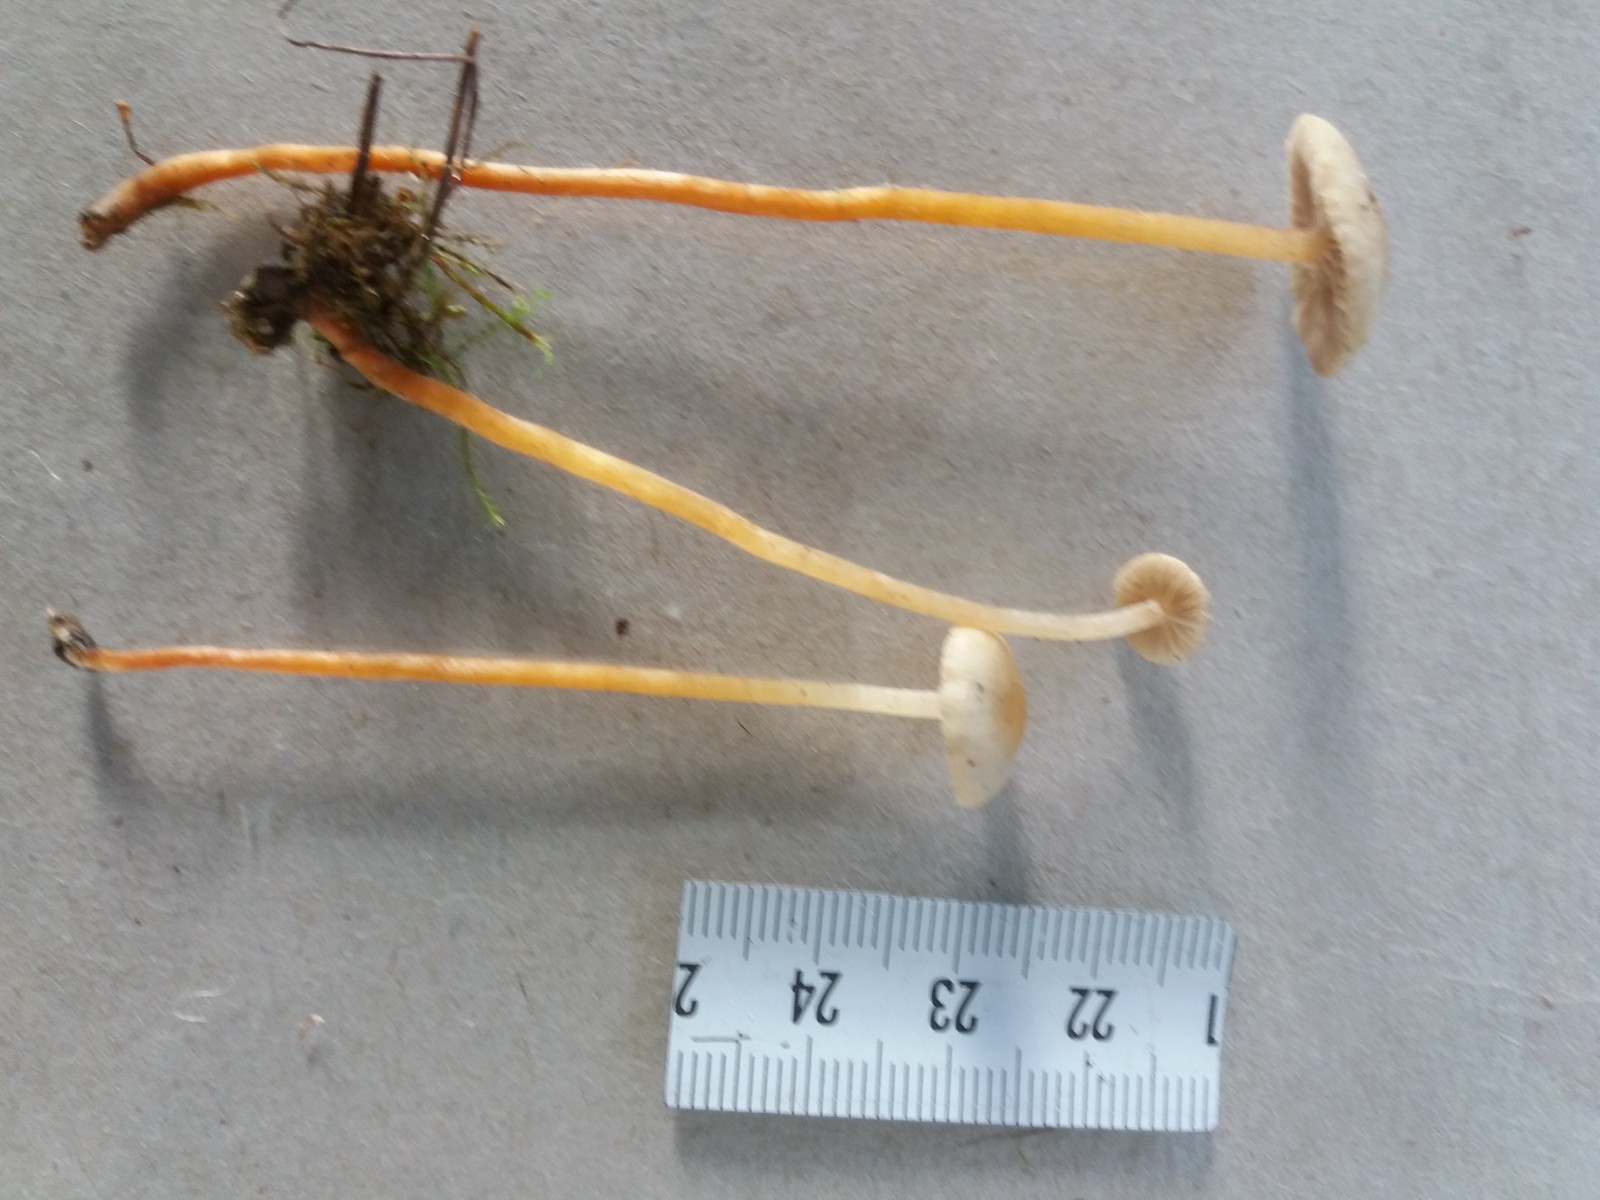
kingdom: Fungi
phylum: Basidiomycota
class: Agaricomycetes
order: Agaricales
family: Strophariaceae
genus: Hypholoma
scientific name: Hypholoma elongatum
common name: slank svovlhat
